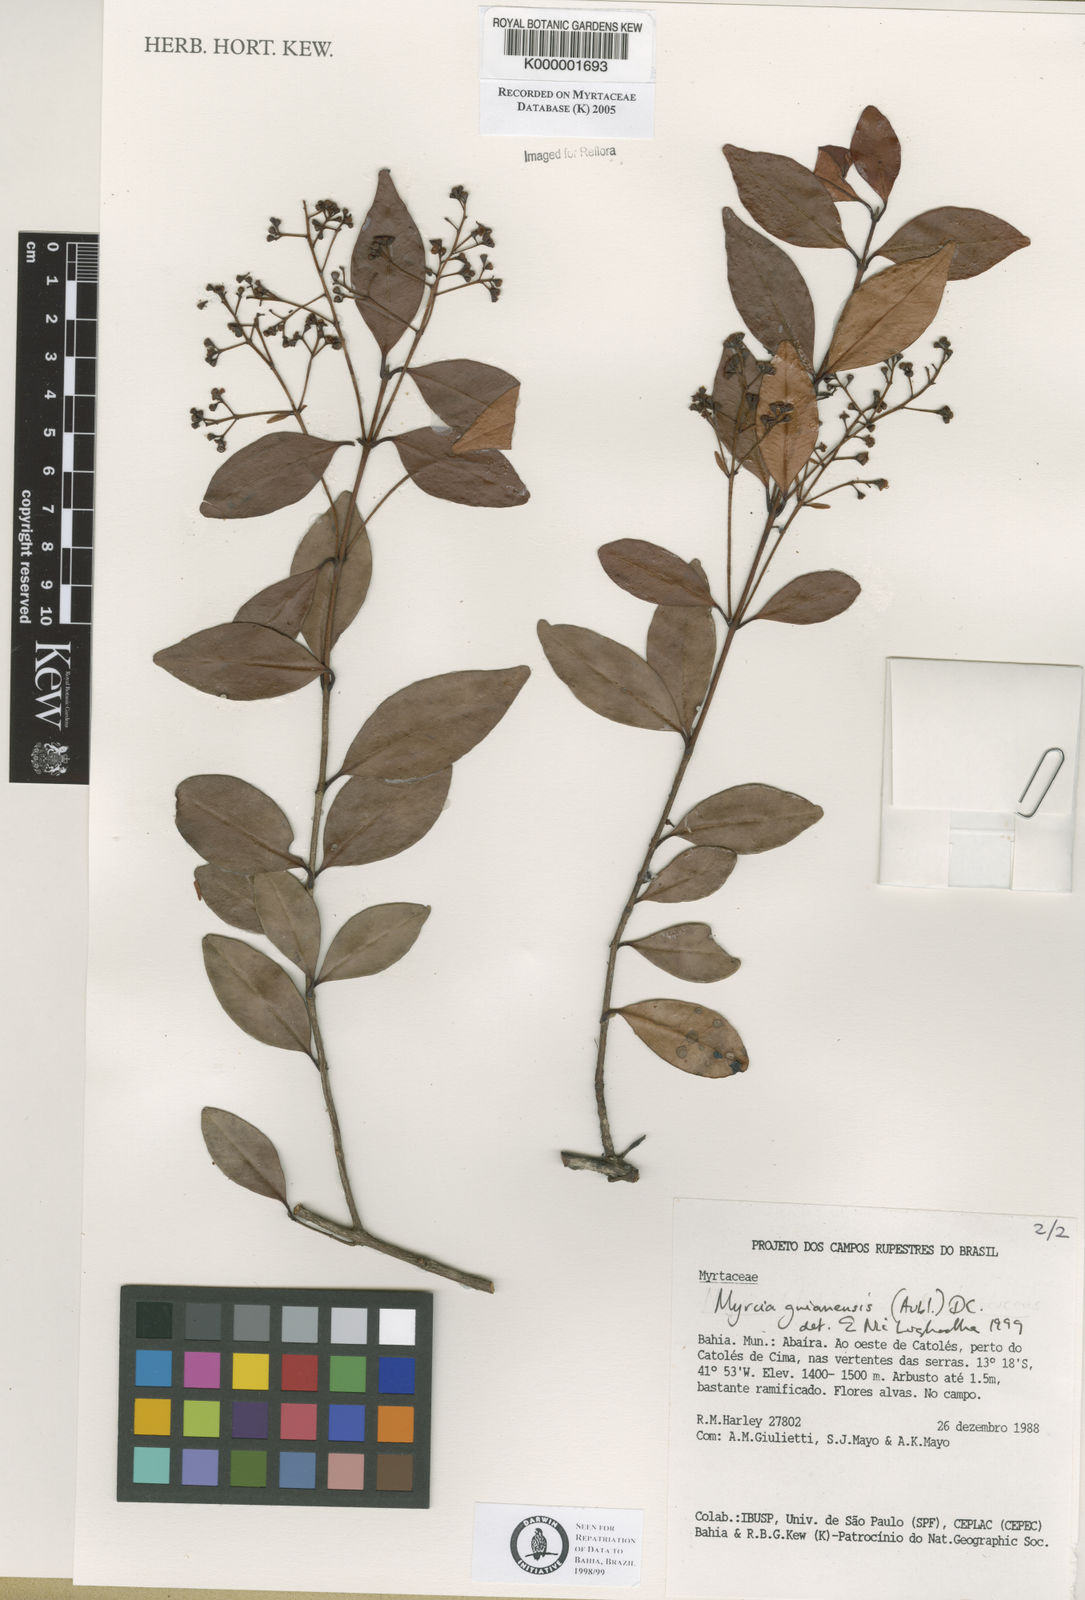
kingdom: Plantae
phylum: Tracheophyta
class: Magnoliopsida
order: Myrtales
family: Myrtaceae
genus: Myrcia
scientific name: Myrcia guianensis
